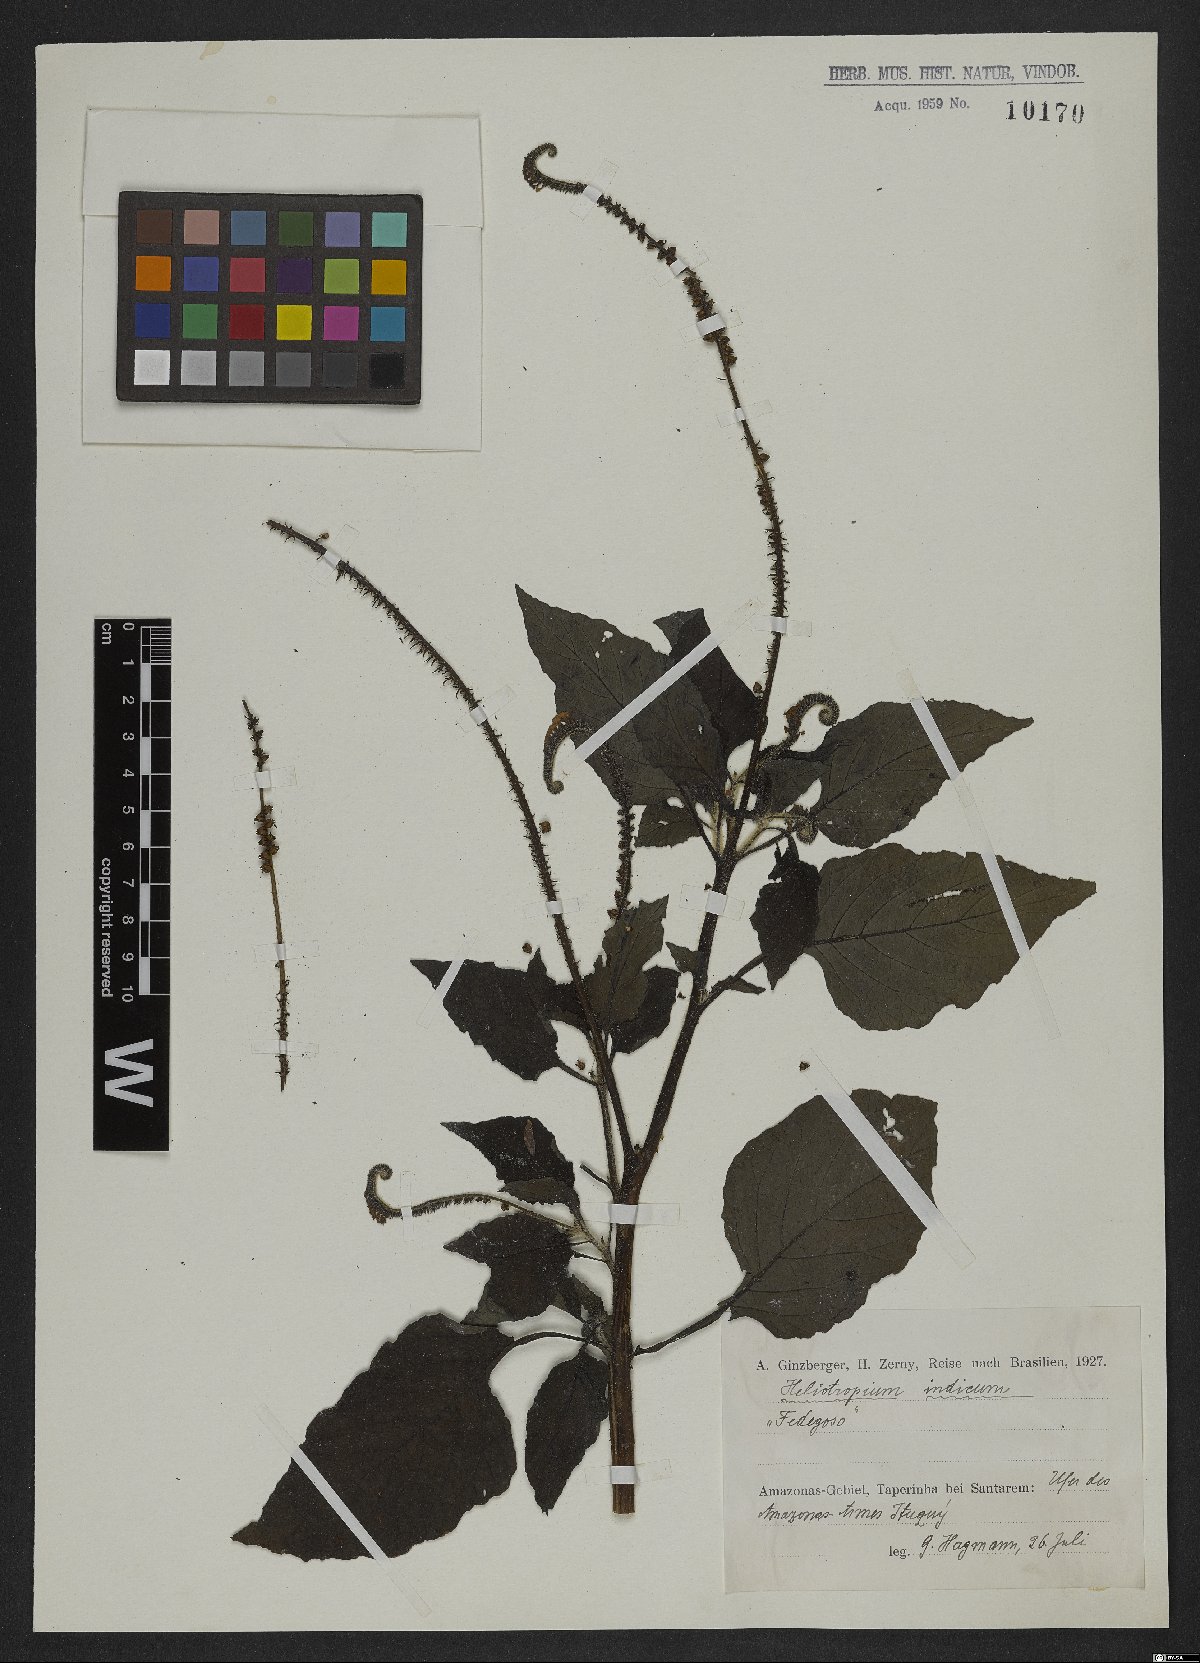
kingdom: Plantae
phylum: Tracheophyta
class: Magnoliopsida
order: Boraginales
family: Heliotropiaceae
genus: Heliotropium
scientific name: Heliotropium indicum
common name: Indian heliotrope
